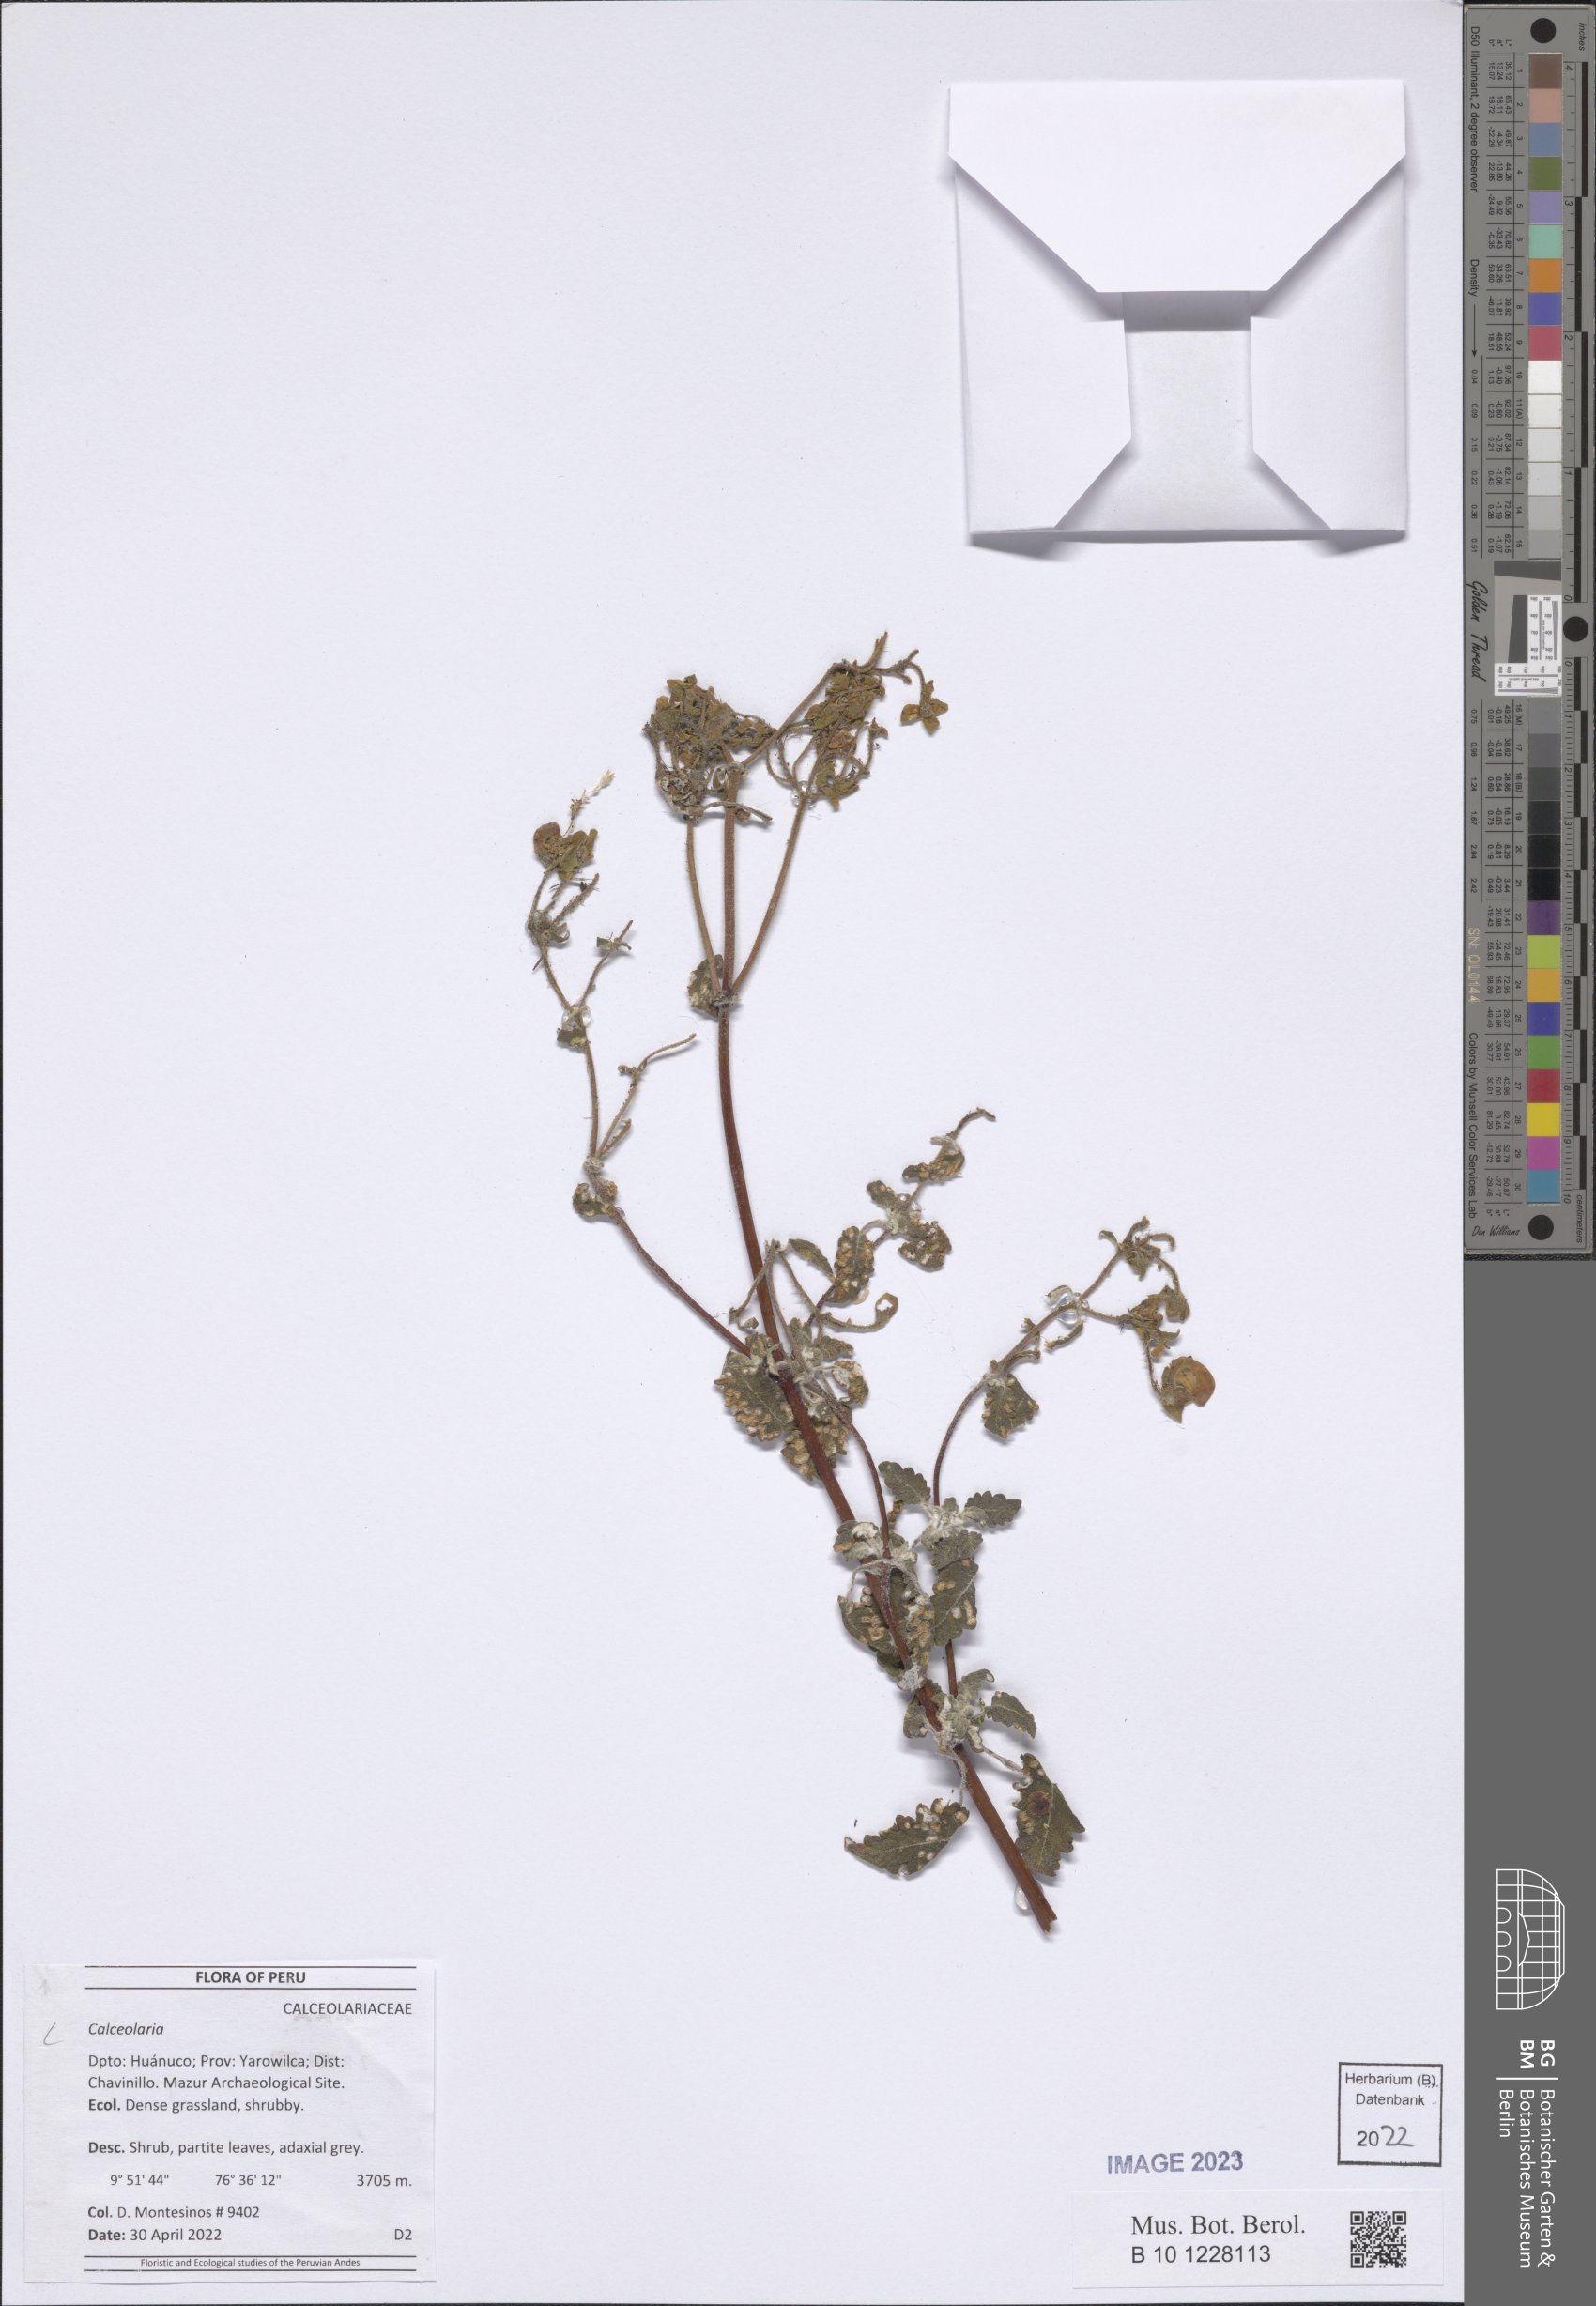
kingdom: Plantae
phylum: Tracheophyta
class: Magnoliopsida
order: Lamiales
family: Calceolariaceae
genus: Calceolaria
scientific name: Calceolaria
